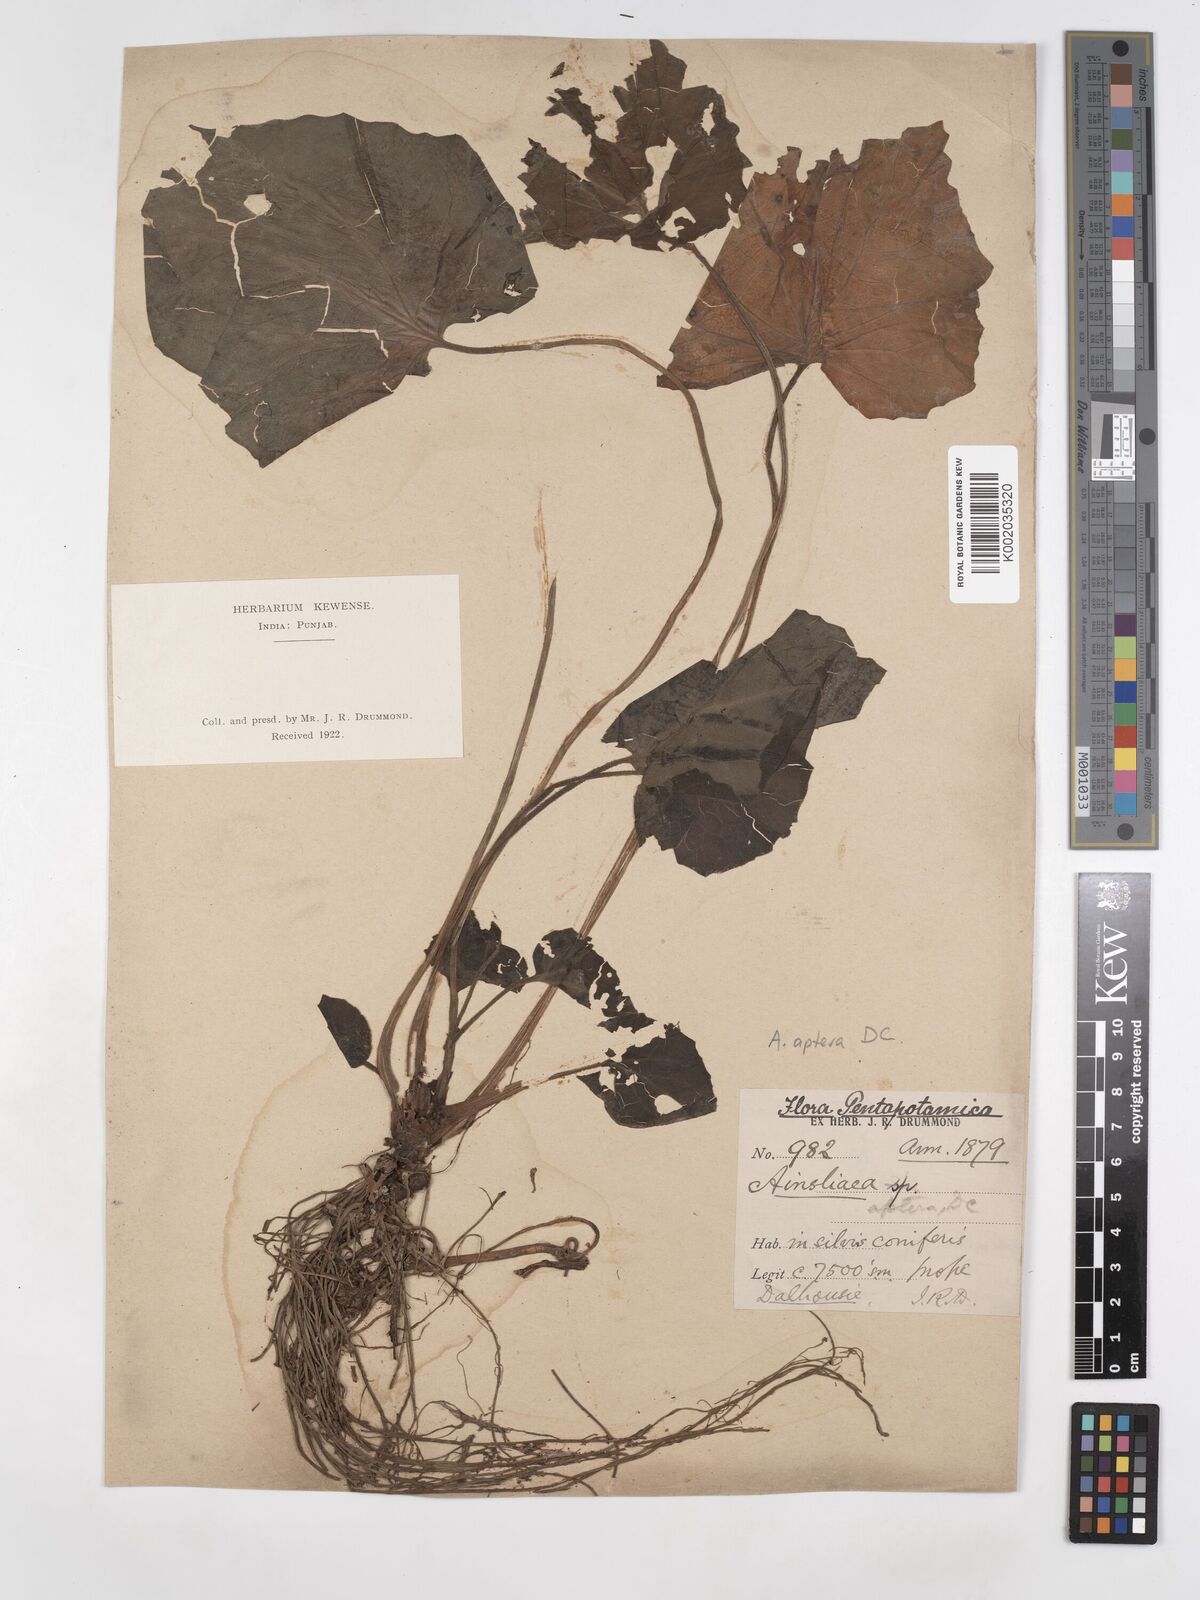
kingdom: Plantae
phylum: Tracheophyta
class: Magnoliopsida
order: Asterales
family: Asteraceae
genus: Ainsliaea
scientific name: Ainsliaea aptera
